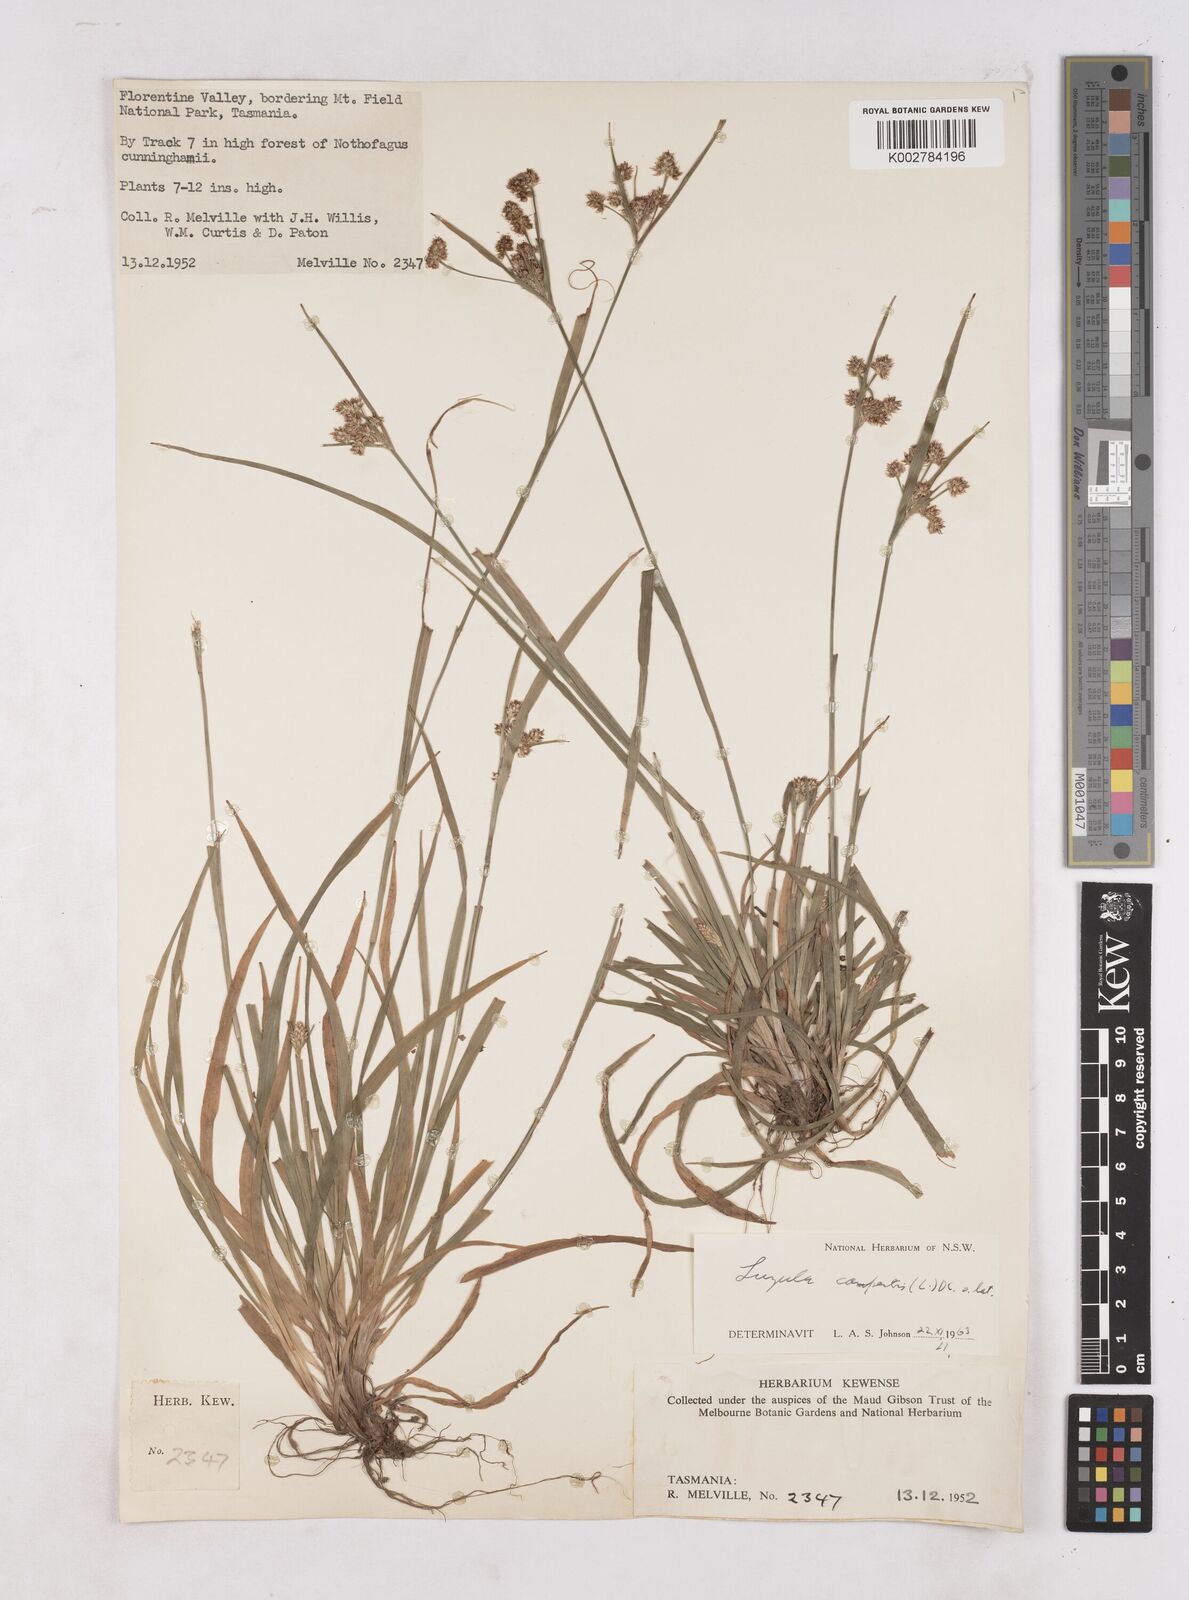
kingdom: Plantae
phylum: Tracheophyta
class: Liliopsida
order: Poales
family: Juncaceae
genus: Luzula
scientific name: Luzula campestris
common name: Field wood-rush
